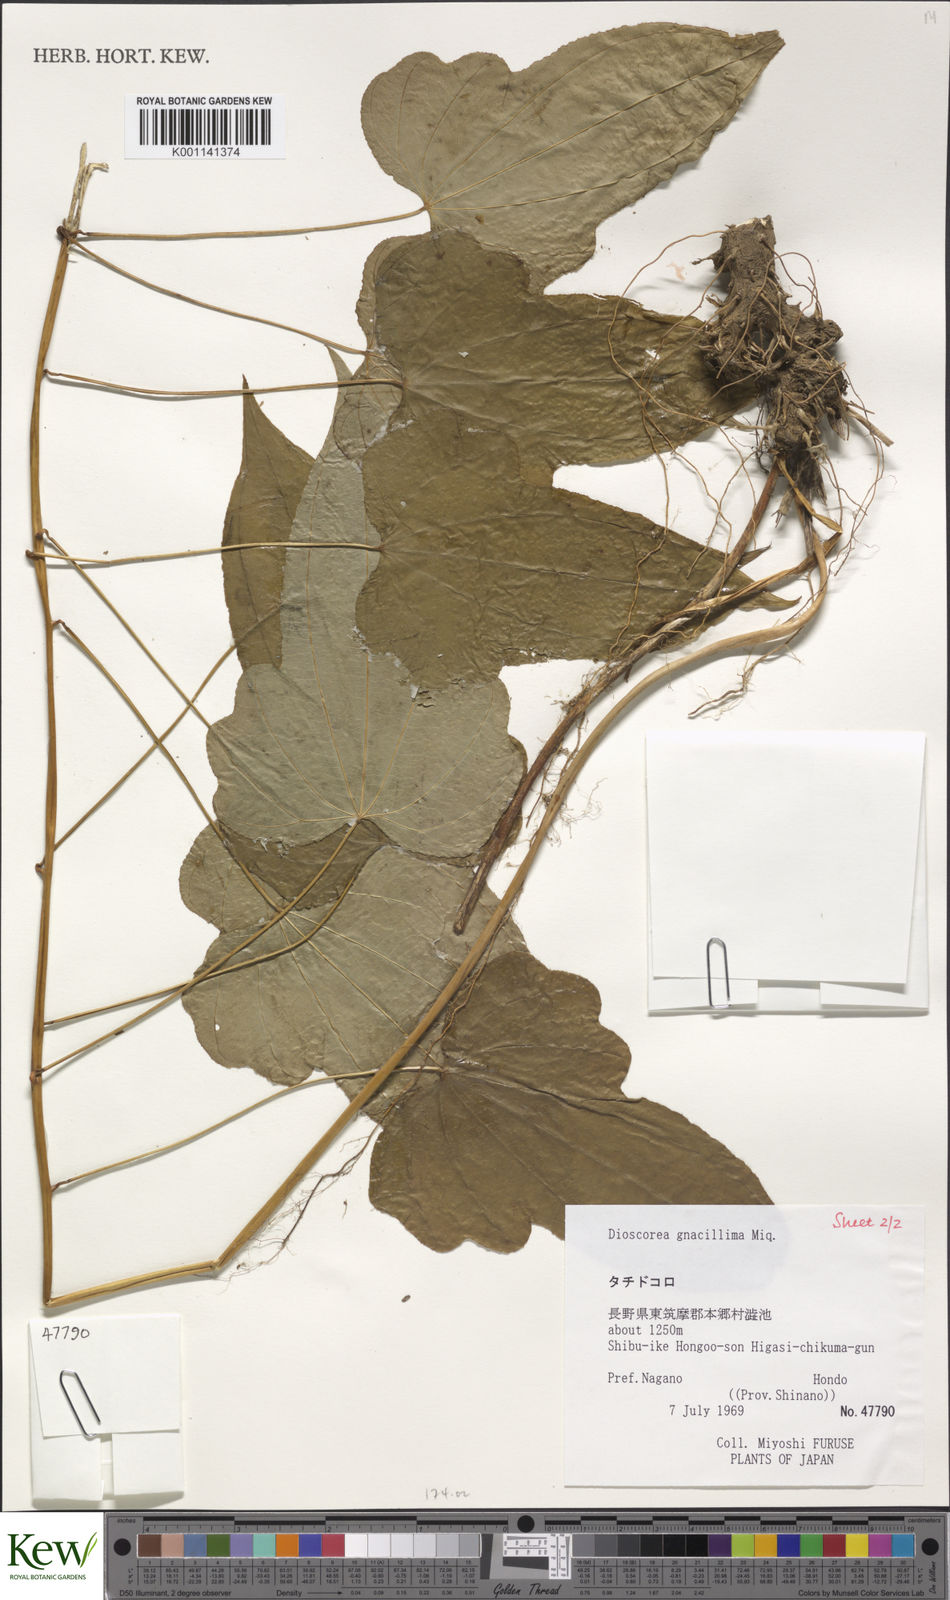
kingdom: Plantae
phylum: Tracheophyta
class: Liliopsida
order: Dioscoreales
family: Dioscoreaceae
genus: Dioscorea
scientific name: Dioscorea gracillima
